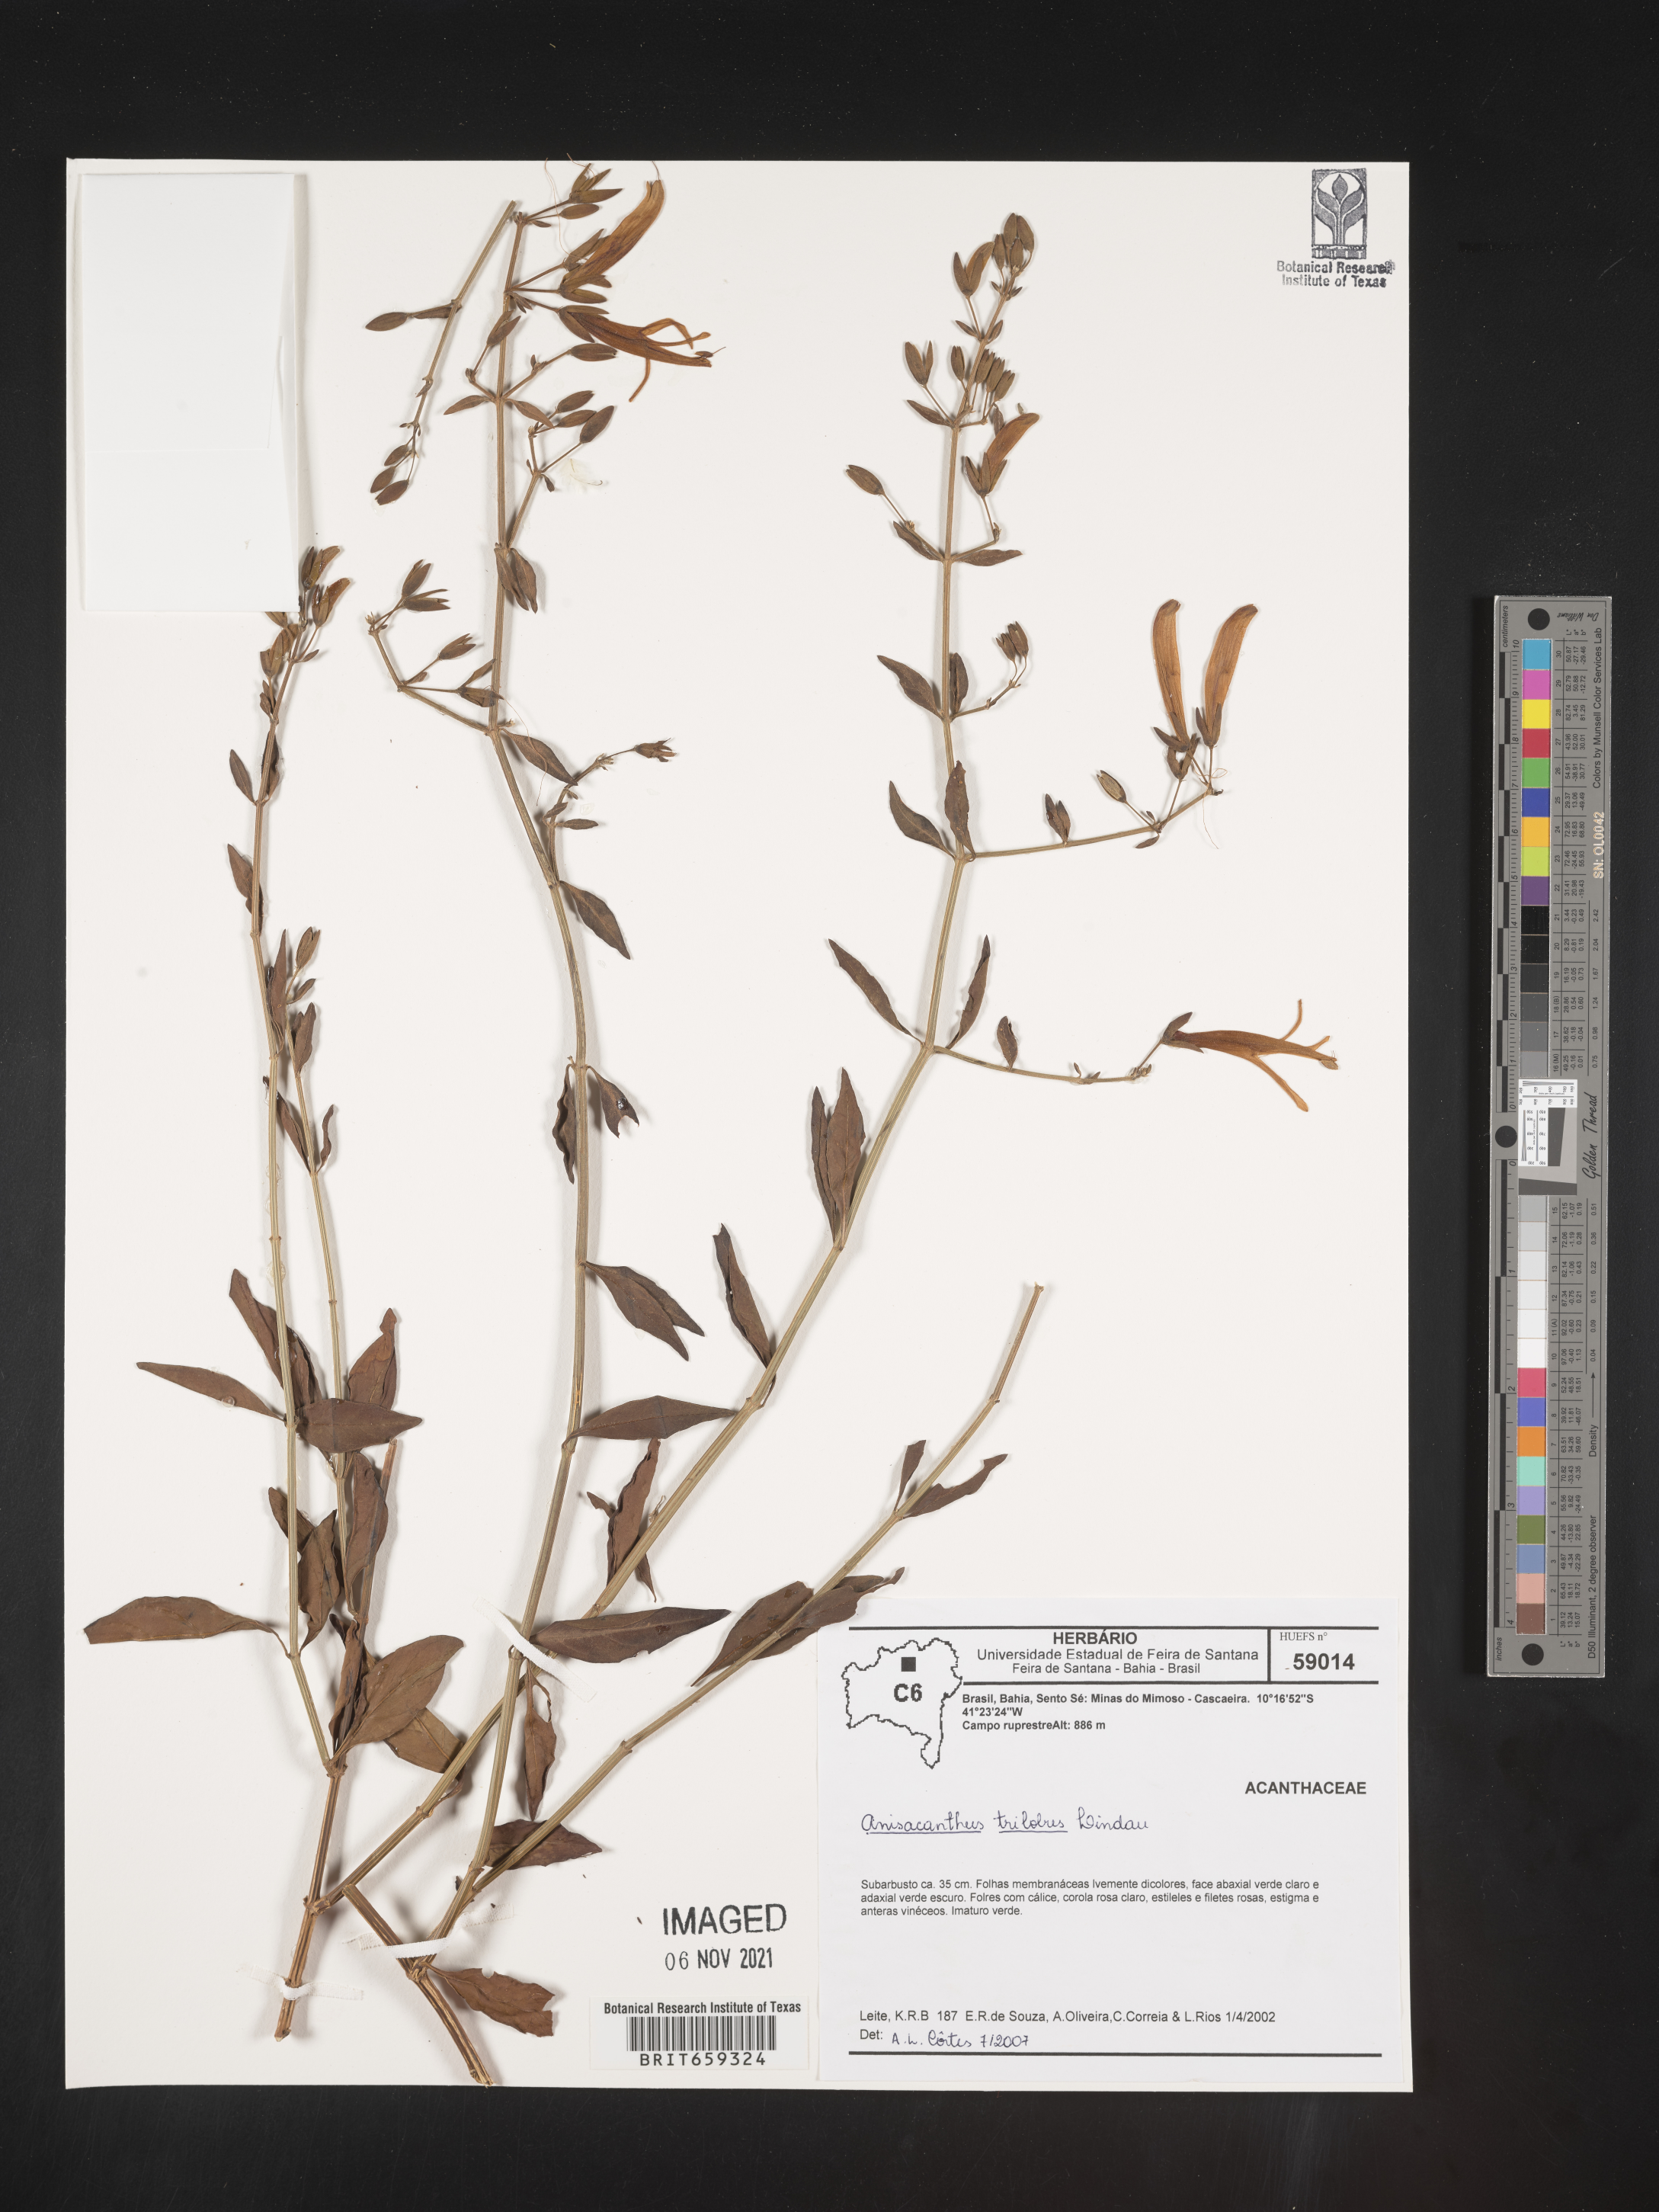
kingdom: Plantae
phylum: Tracheophyta
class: Magnoliopsida
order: Lamiales
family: Acanthaceae
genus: Anisacanthus
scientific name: Anisacanthus
